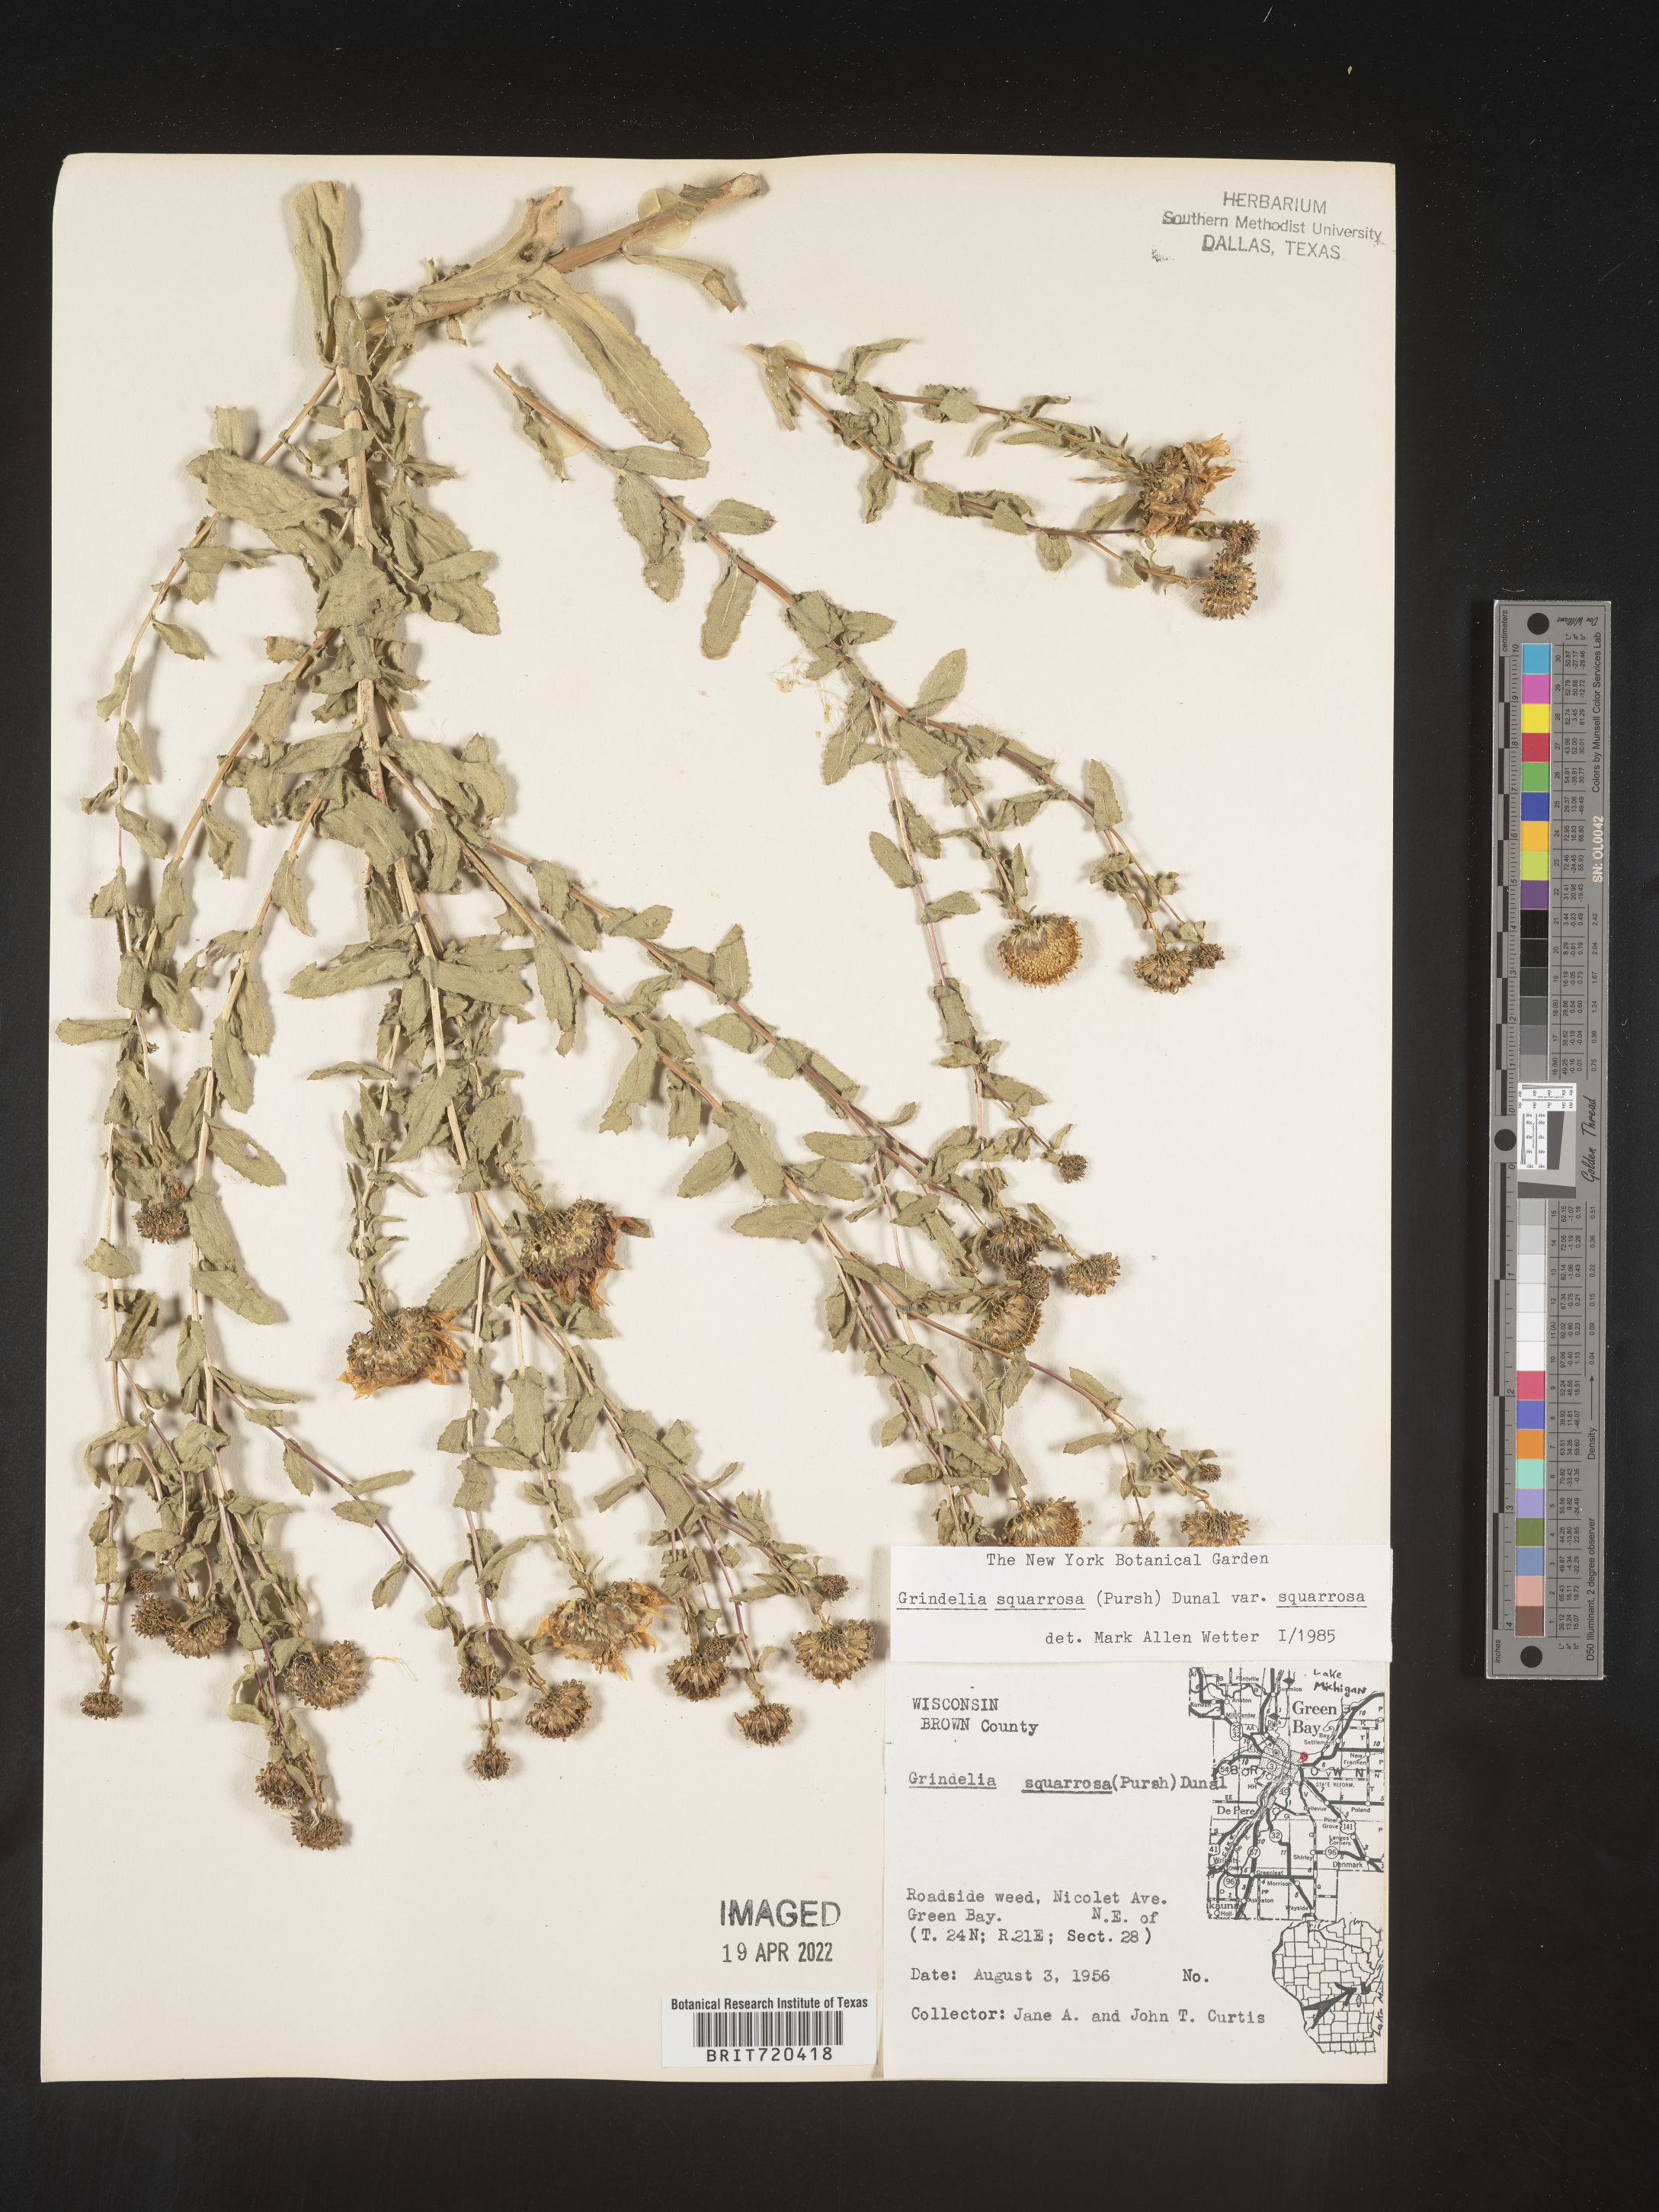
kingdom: Plantae
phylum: Tracheophyta
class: Magnoliopsida
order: Asterales
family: Asteraceae
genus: Grindelia
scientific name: Grindelia squarrosa
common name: Curly-cup gumweed
